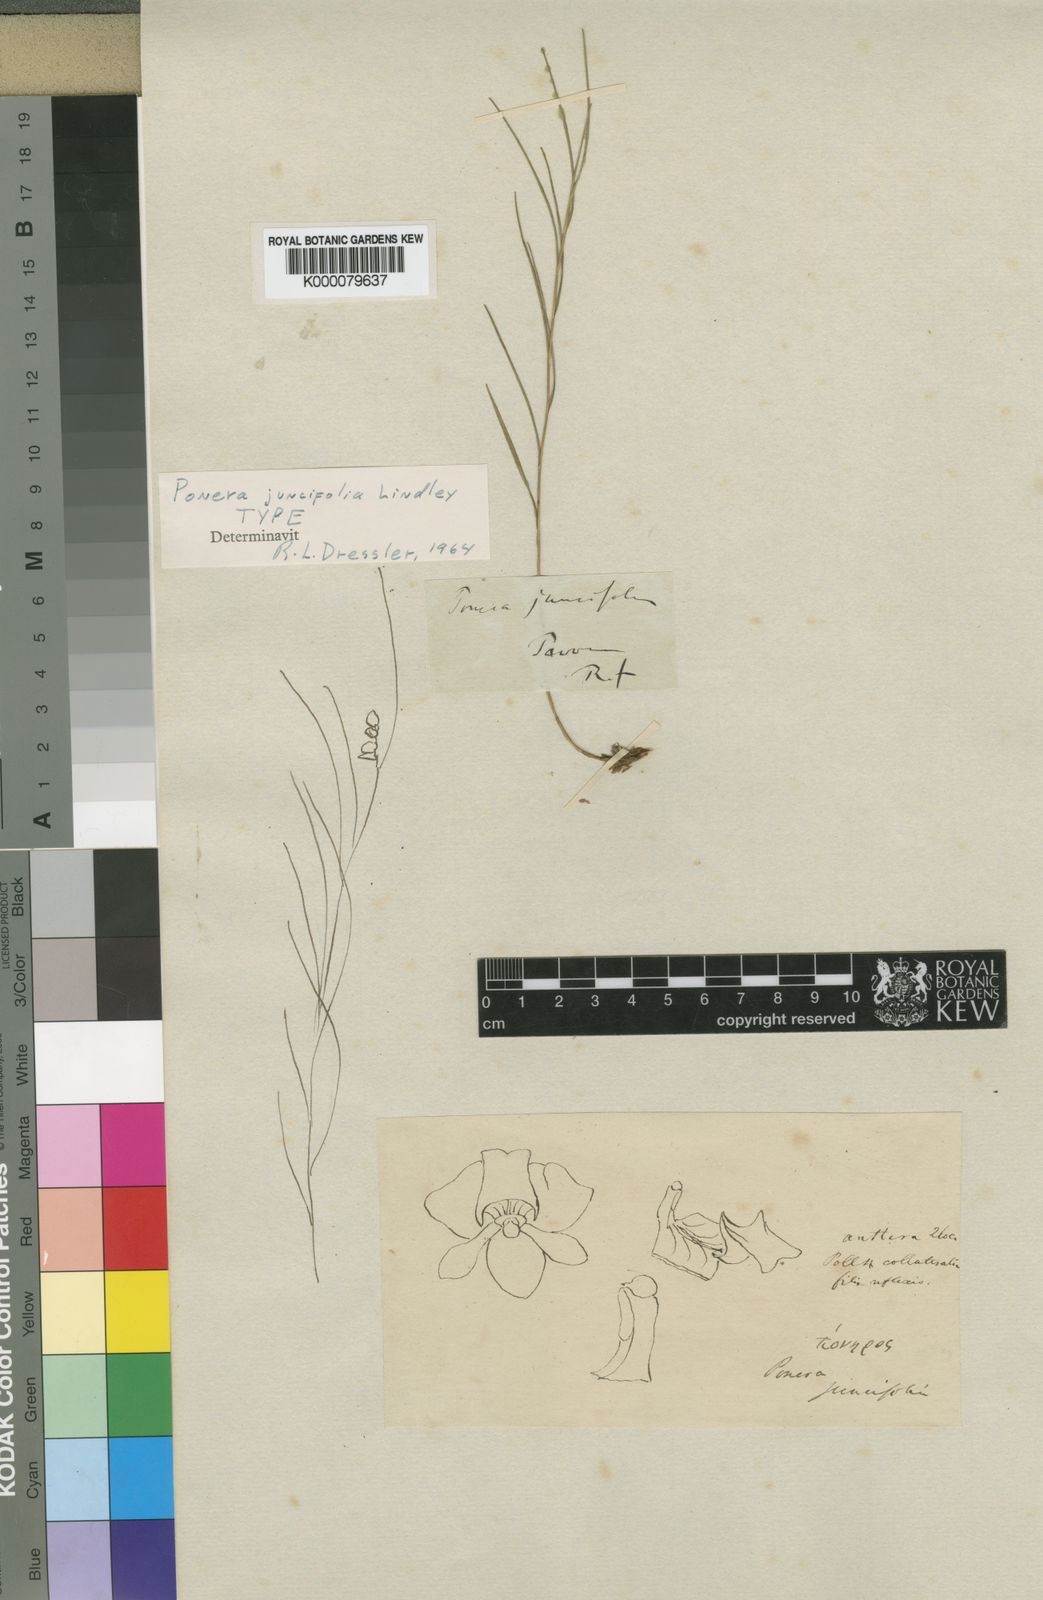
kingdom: Plantae
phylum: Tracheophyta
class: Liliopsida
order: Asparagales
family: Orchidaceae
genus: Ponera
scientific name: Ponera juncifolia
